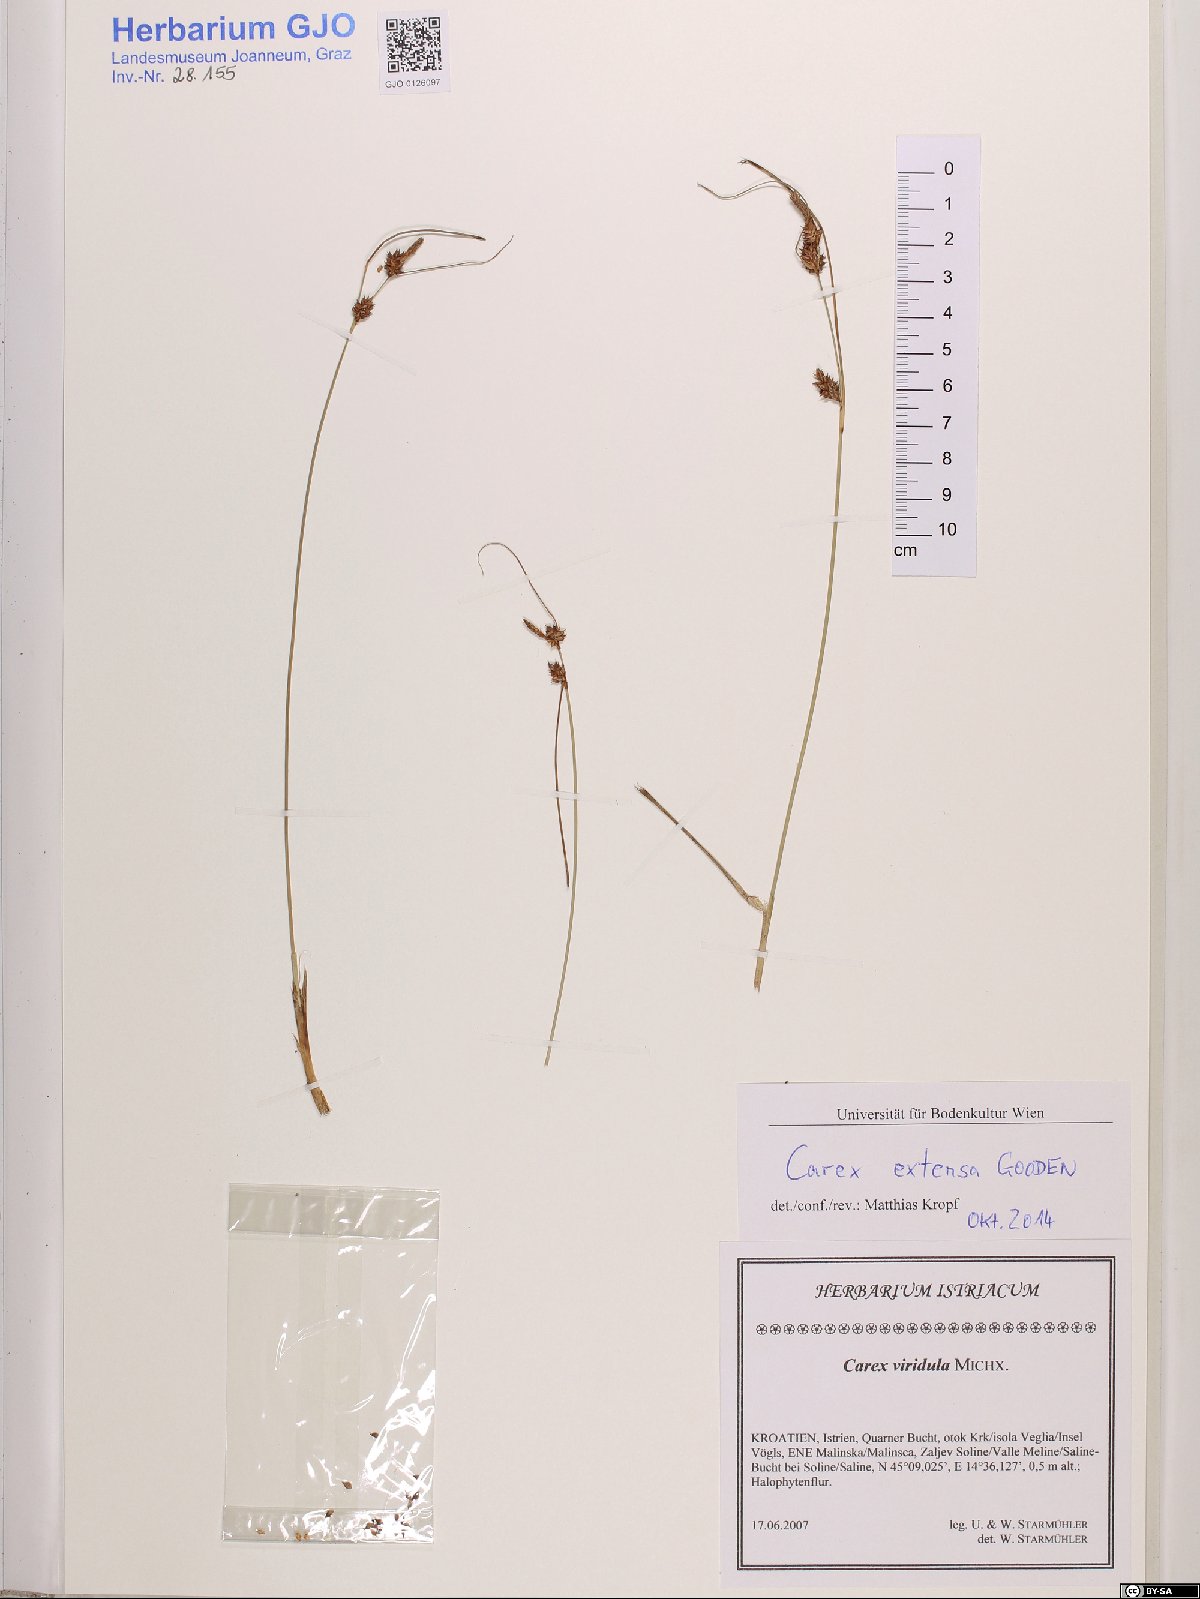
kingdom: Plantae
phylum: Tracheophyta
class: Liliopsida
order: Poales
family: Cyperaceae
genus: Carex
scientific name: Carex extensa
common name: Long-bracted sedge
